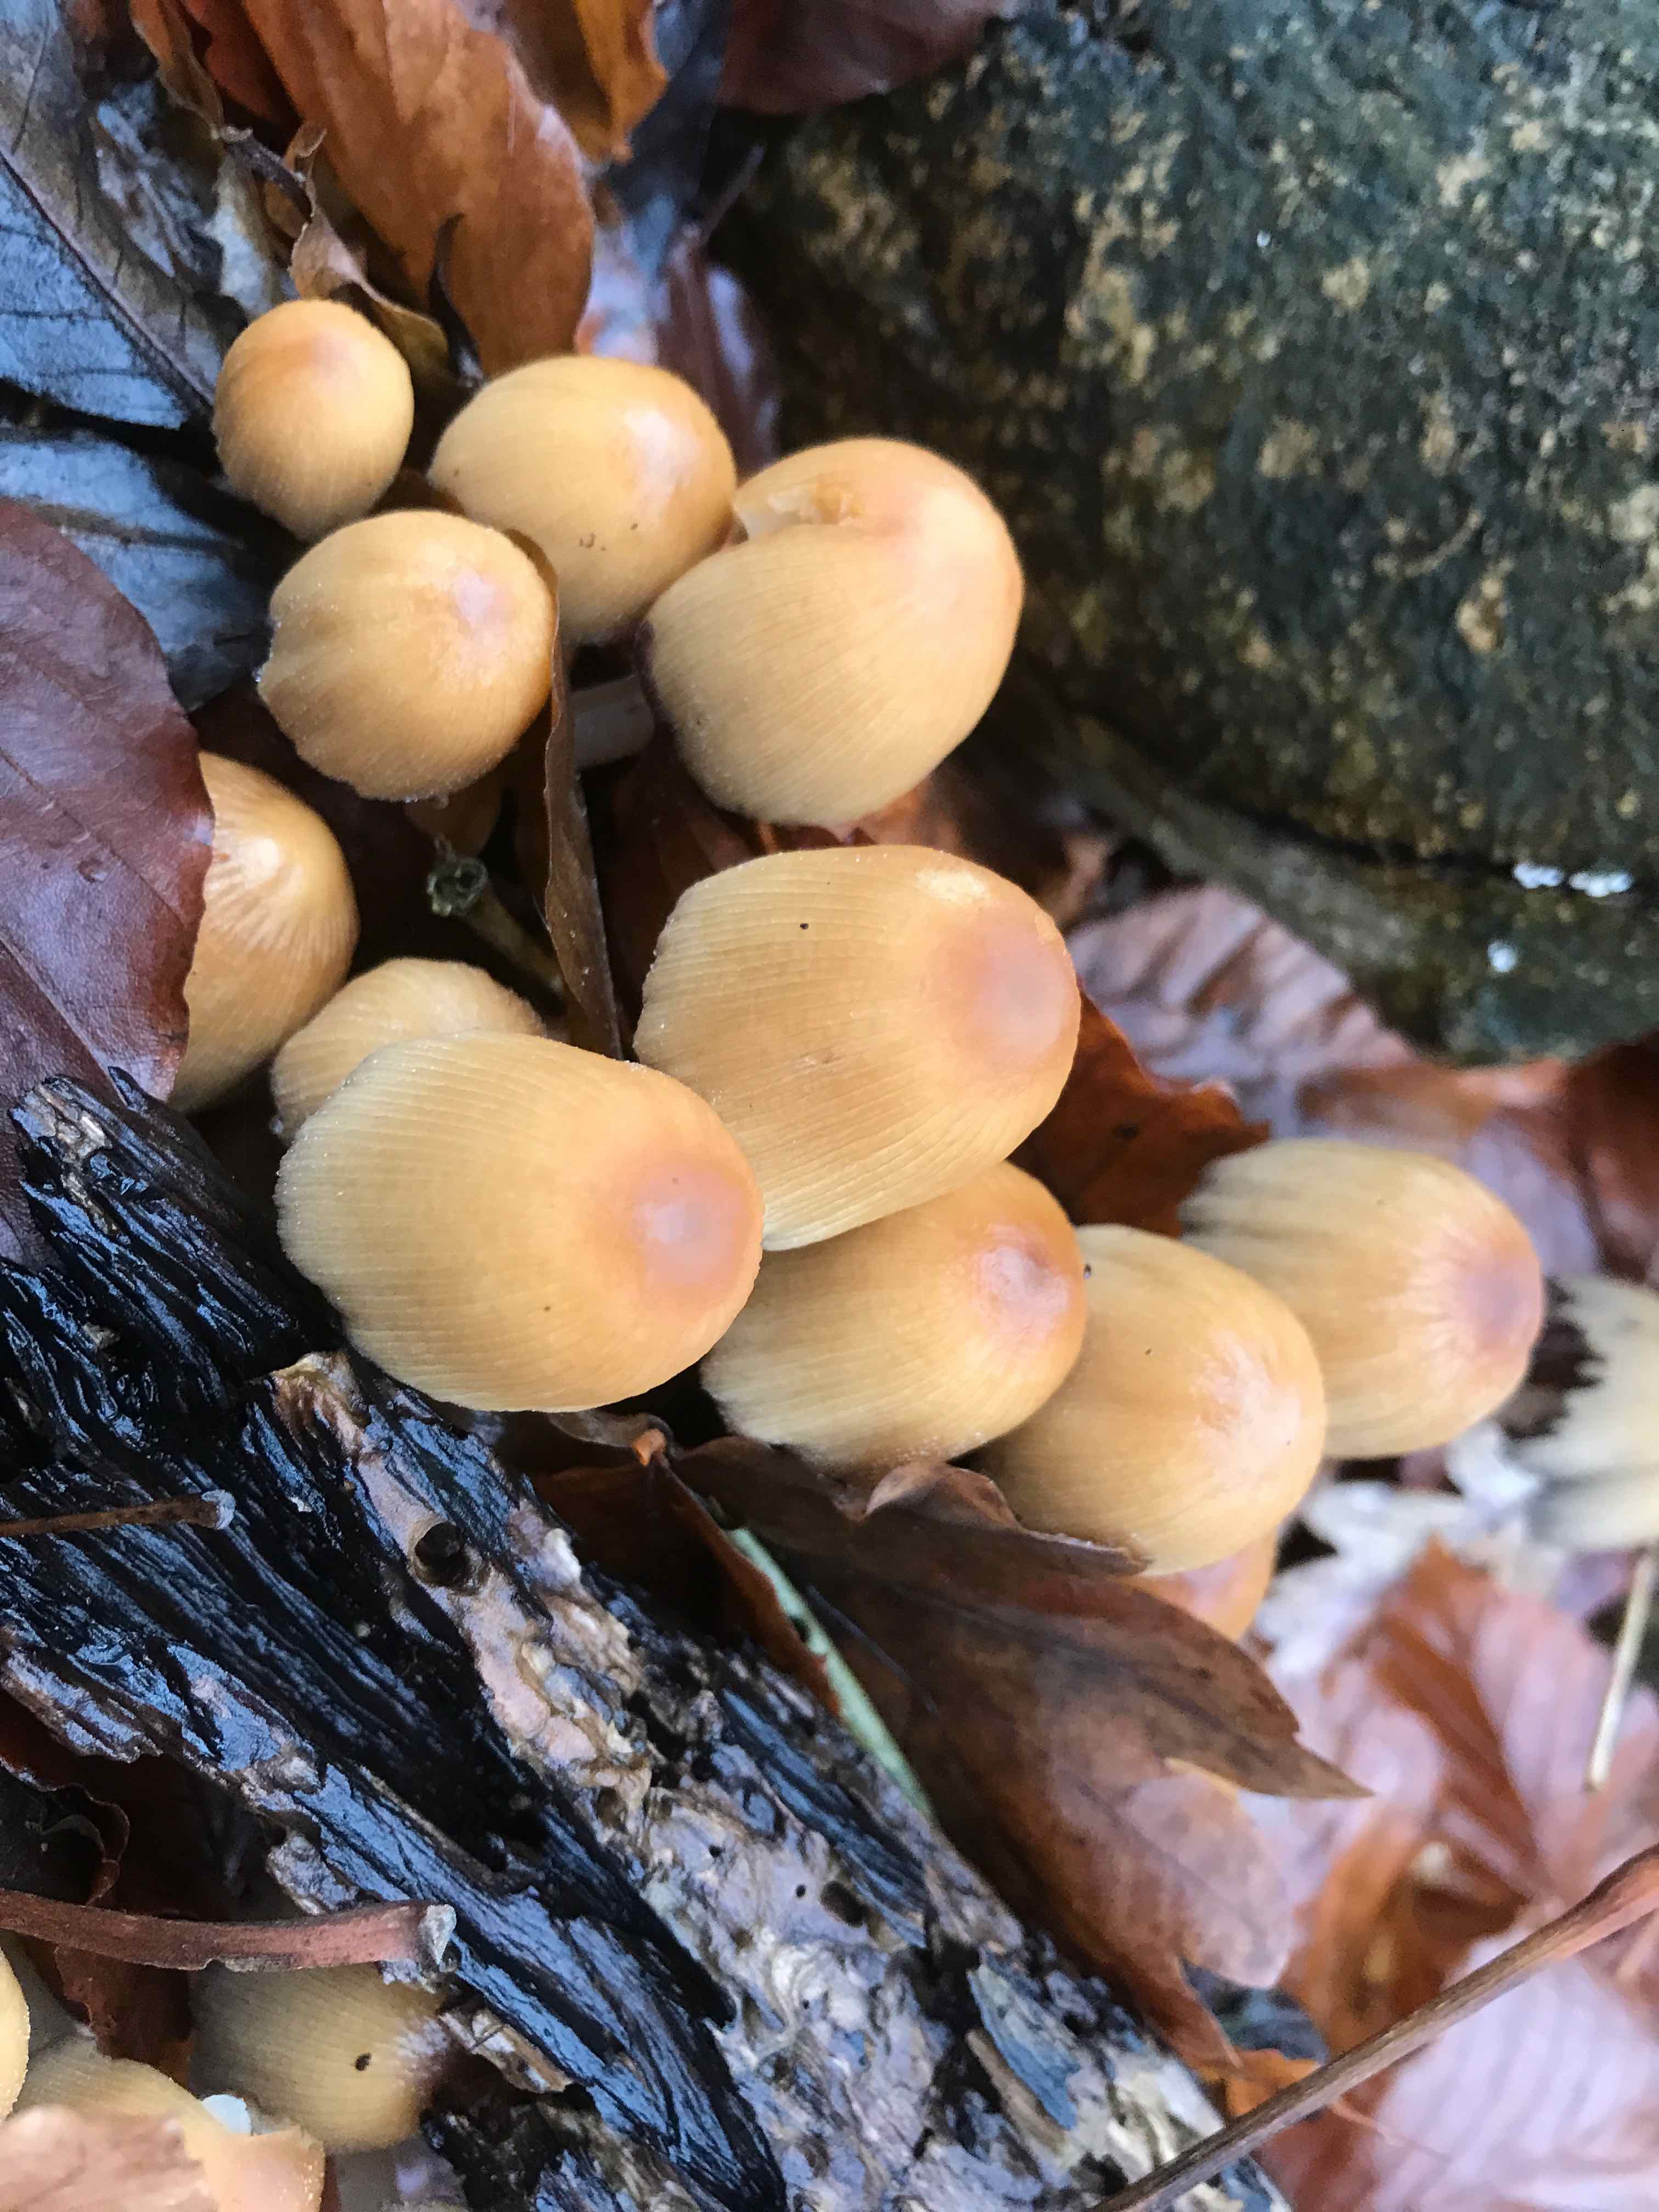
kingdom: Fungi
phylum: Basidiomycota
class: Agaricomycetes
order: Agaricales
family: Psathyrellaceae
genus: Coprinellus
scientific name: Coprinellus micaceus
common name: glimmer-blækhat
